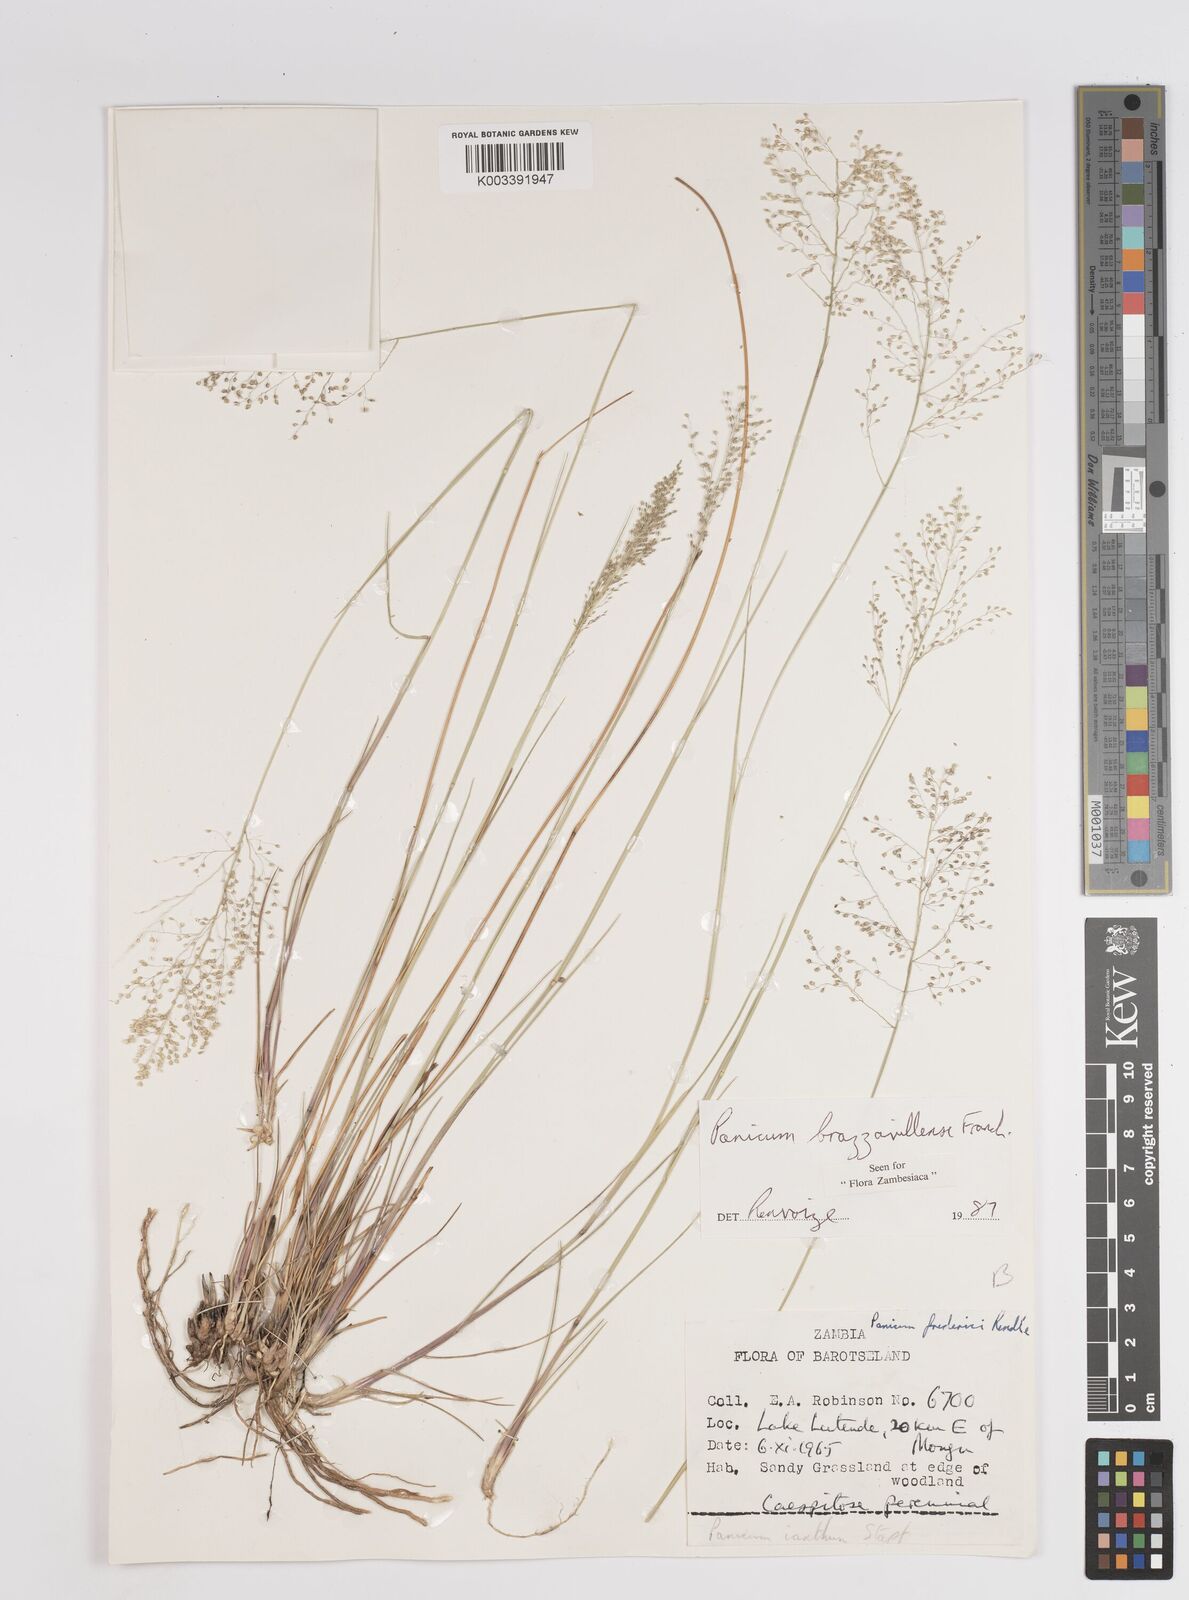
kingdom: Plantae
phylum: Tracheophyta
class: Liliopsida
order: Poales
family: Poaceae
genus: Trichanthecium
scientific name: Trichanthecium brazzavillense
